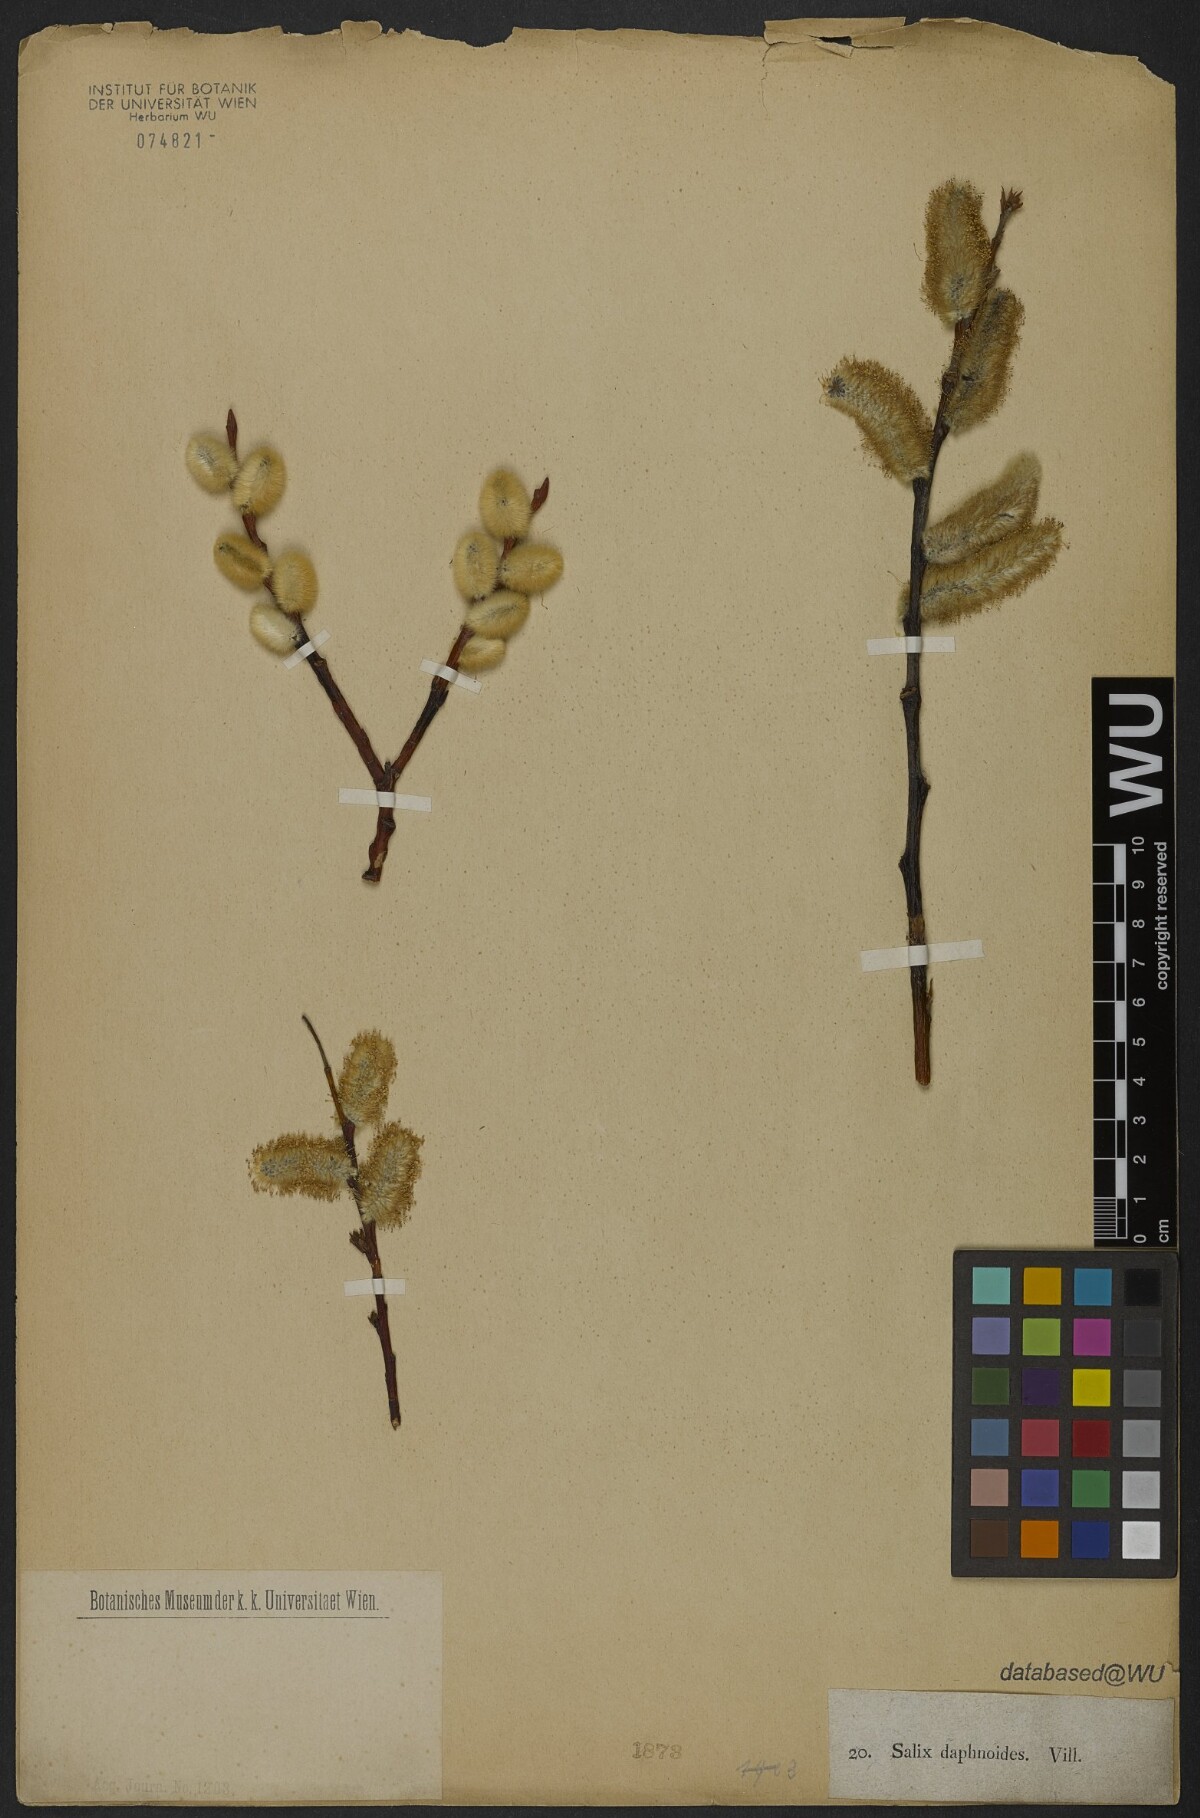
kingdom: Plantae
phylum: Tracheophyta
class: Magnoliopsida
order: Malpighiales
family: Salicaceae
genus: Salix
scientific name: Salix daphnoides
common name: European violet-willow
